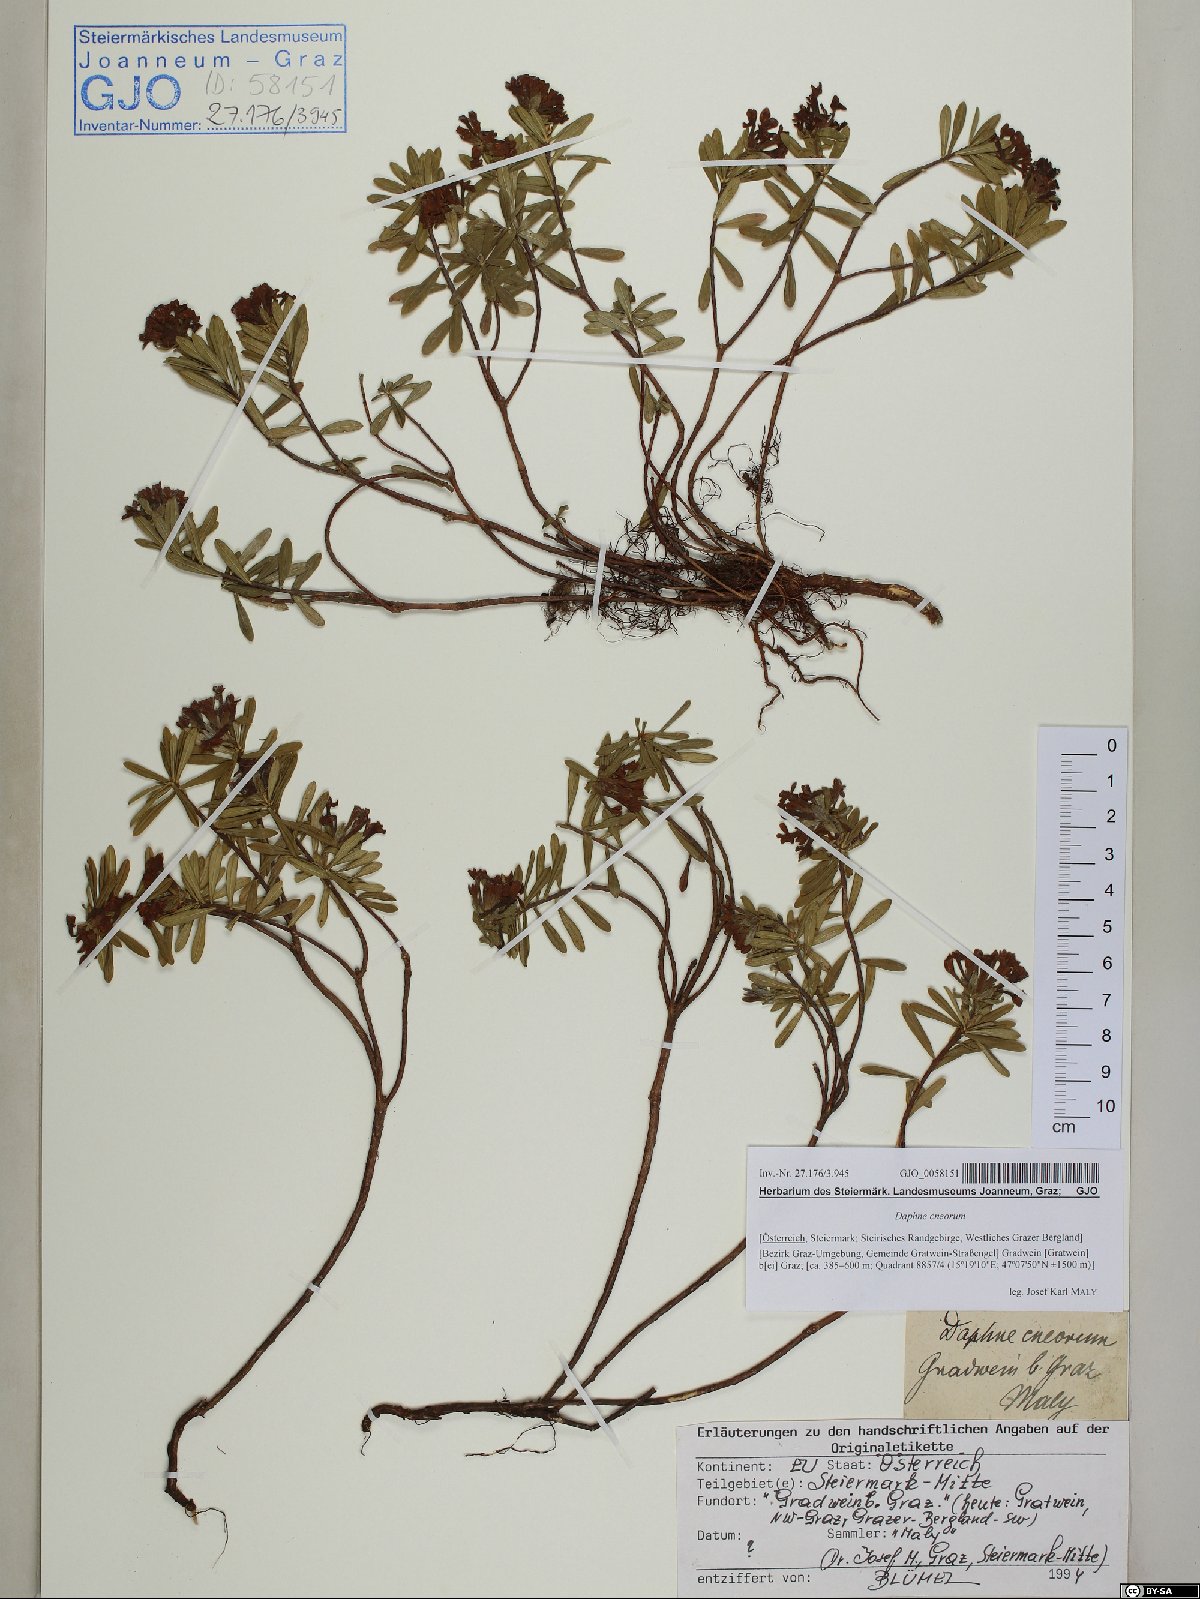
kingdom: Plantae
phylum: Tracheophyta
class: Magnoliopsida
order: Malvales
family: Thymelaeaceae
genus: Daphne
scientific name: Daphne cneorum
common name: Garland-flower
